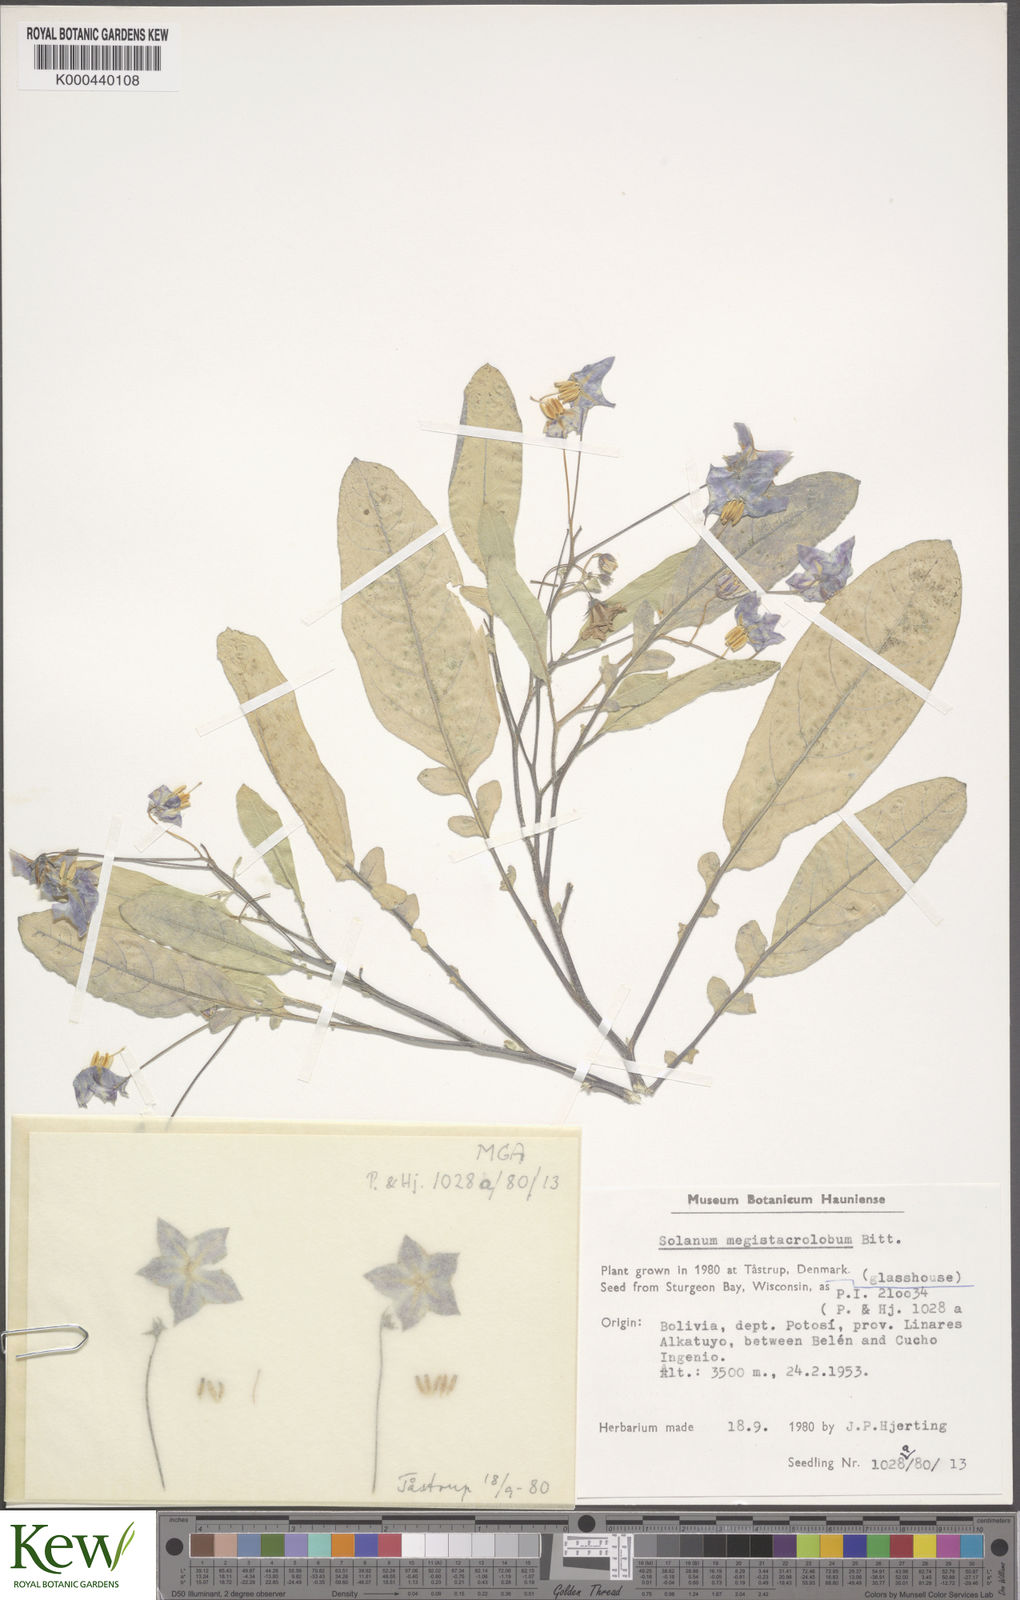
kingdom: Plantae
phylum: Tracheophyta
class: Magnoliopsida
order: Solanales
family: Solanaceae
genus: Solanum
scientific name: Solanum boliviense
